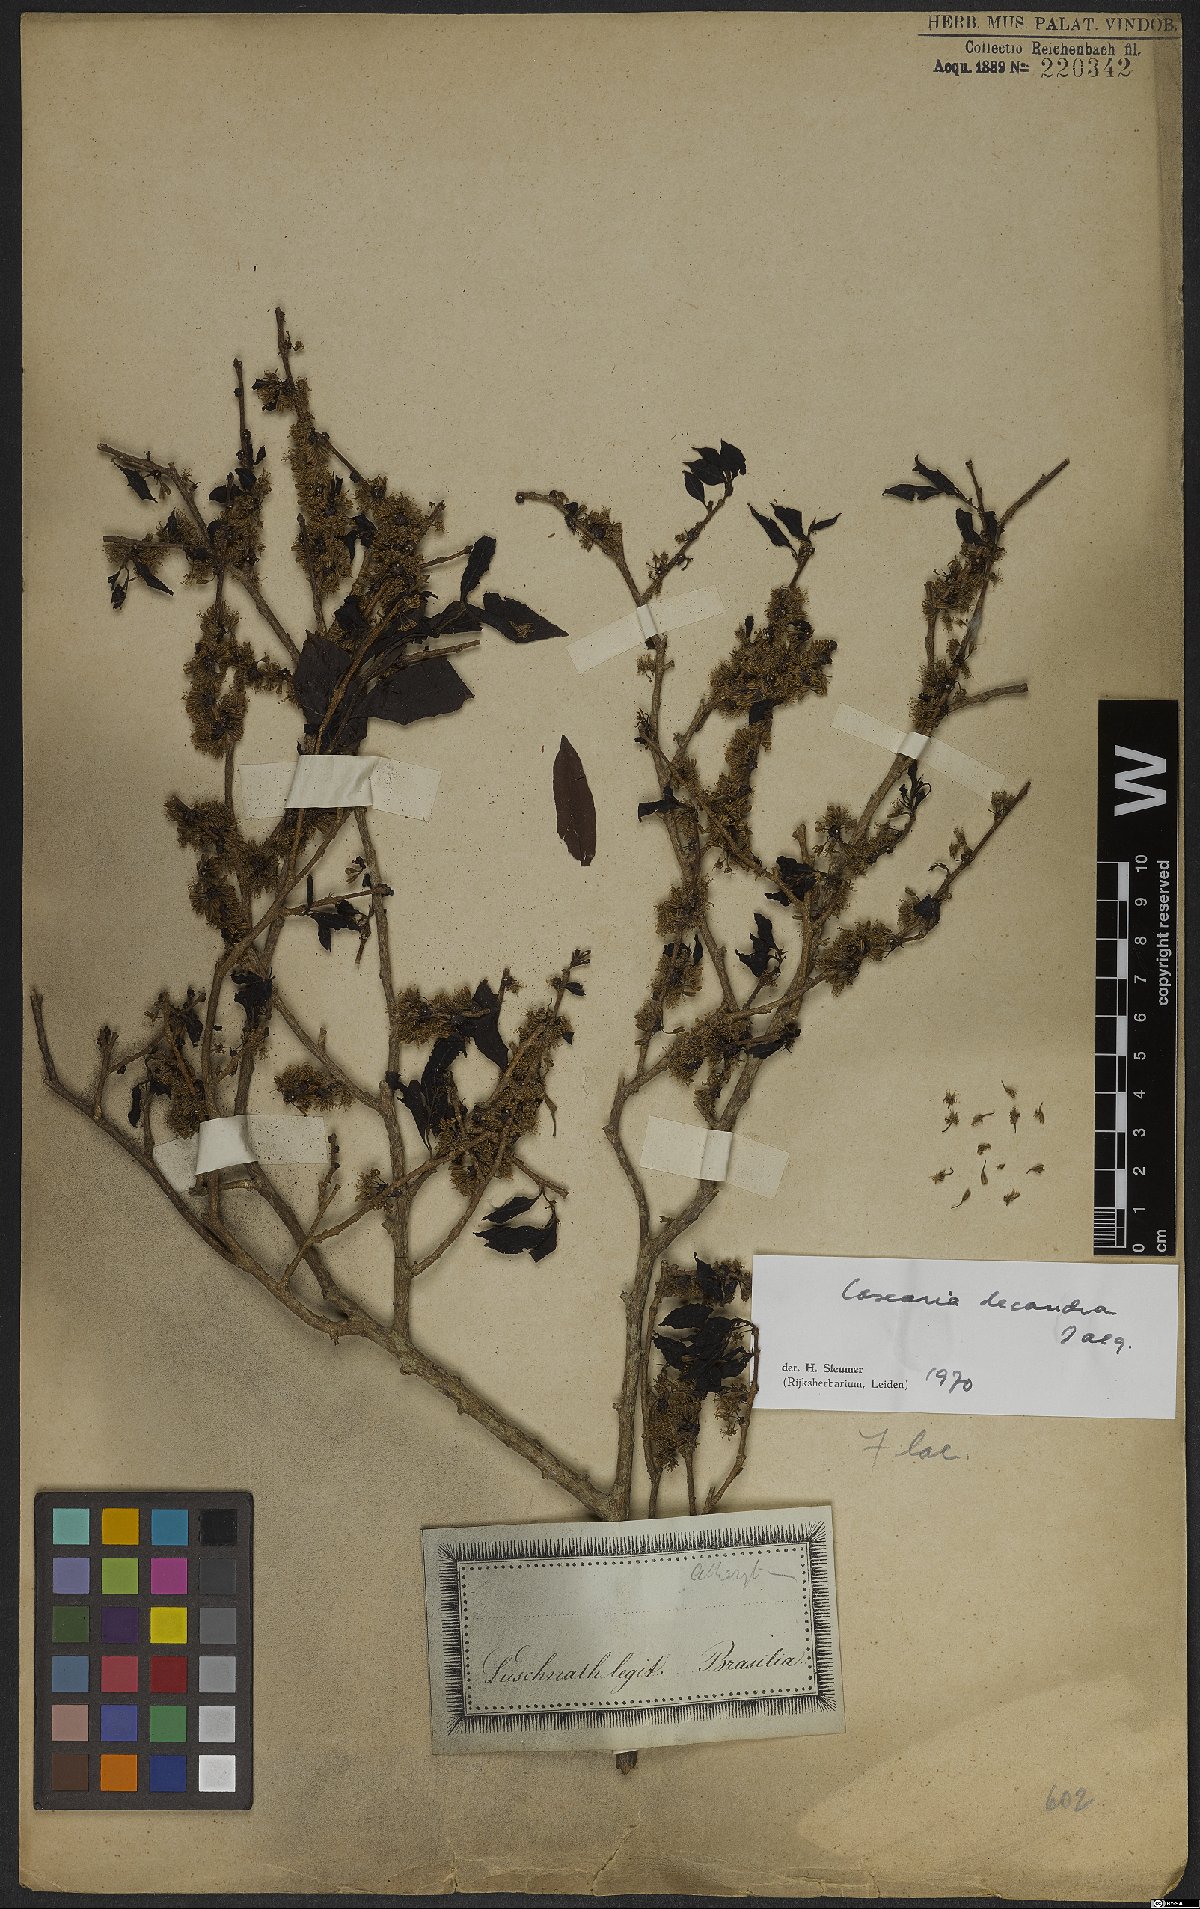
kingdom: Plantae
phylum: Tracheophyta
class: Magnoliopsida
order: Malpighiales
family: Salicaceae
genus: Casearia
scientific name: Casearia decandra
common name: Crack open
